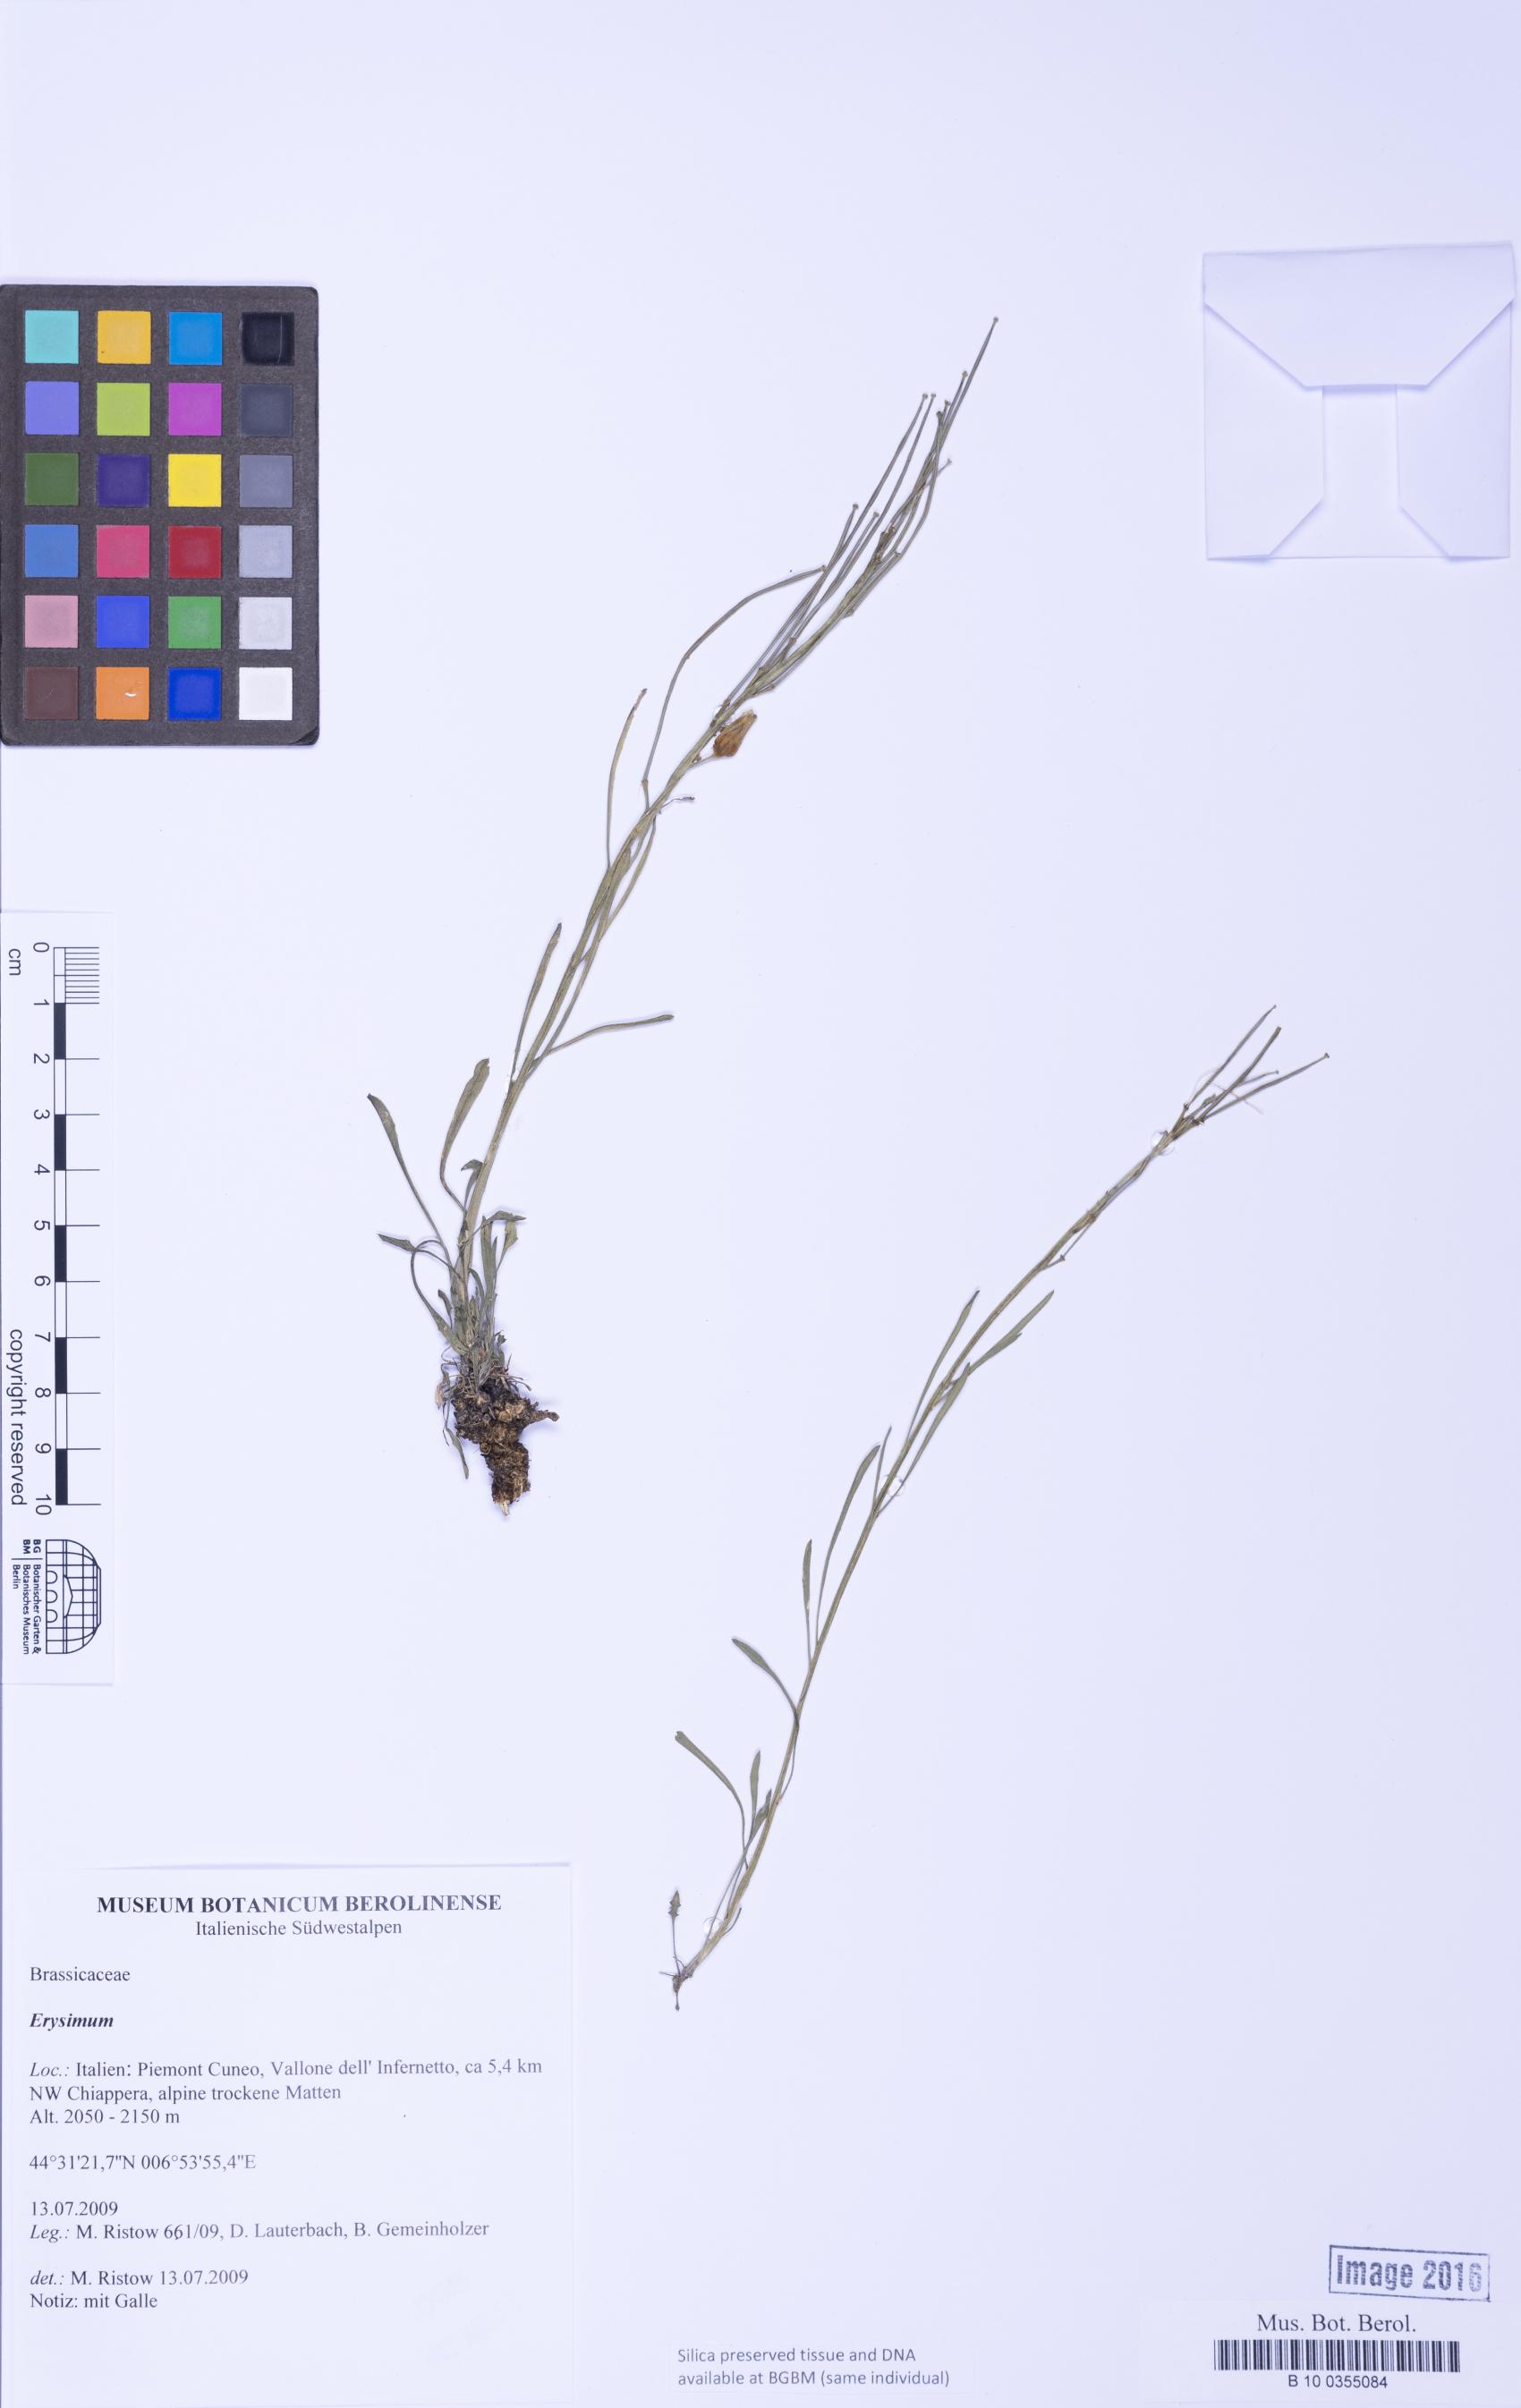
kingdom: Plantae
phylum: Tracheophyta
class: Magnoliopsida
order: Brassicales
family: Brassicaceae
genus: Erysimum
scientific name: Erysimum
